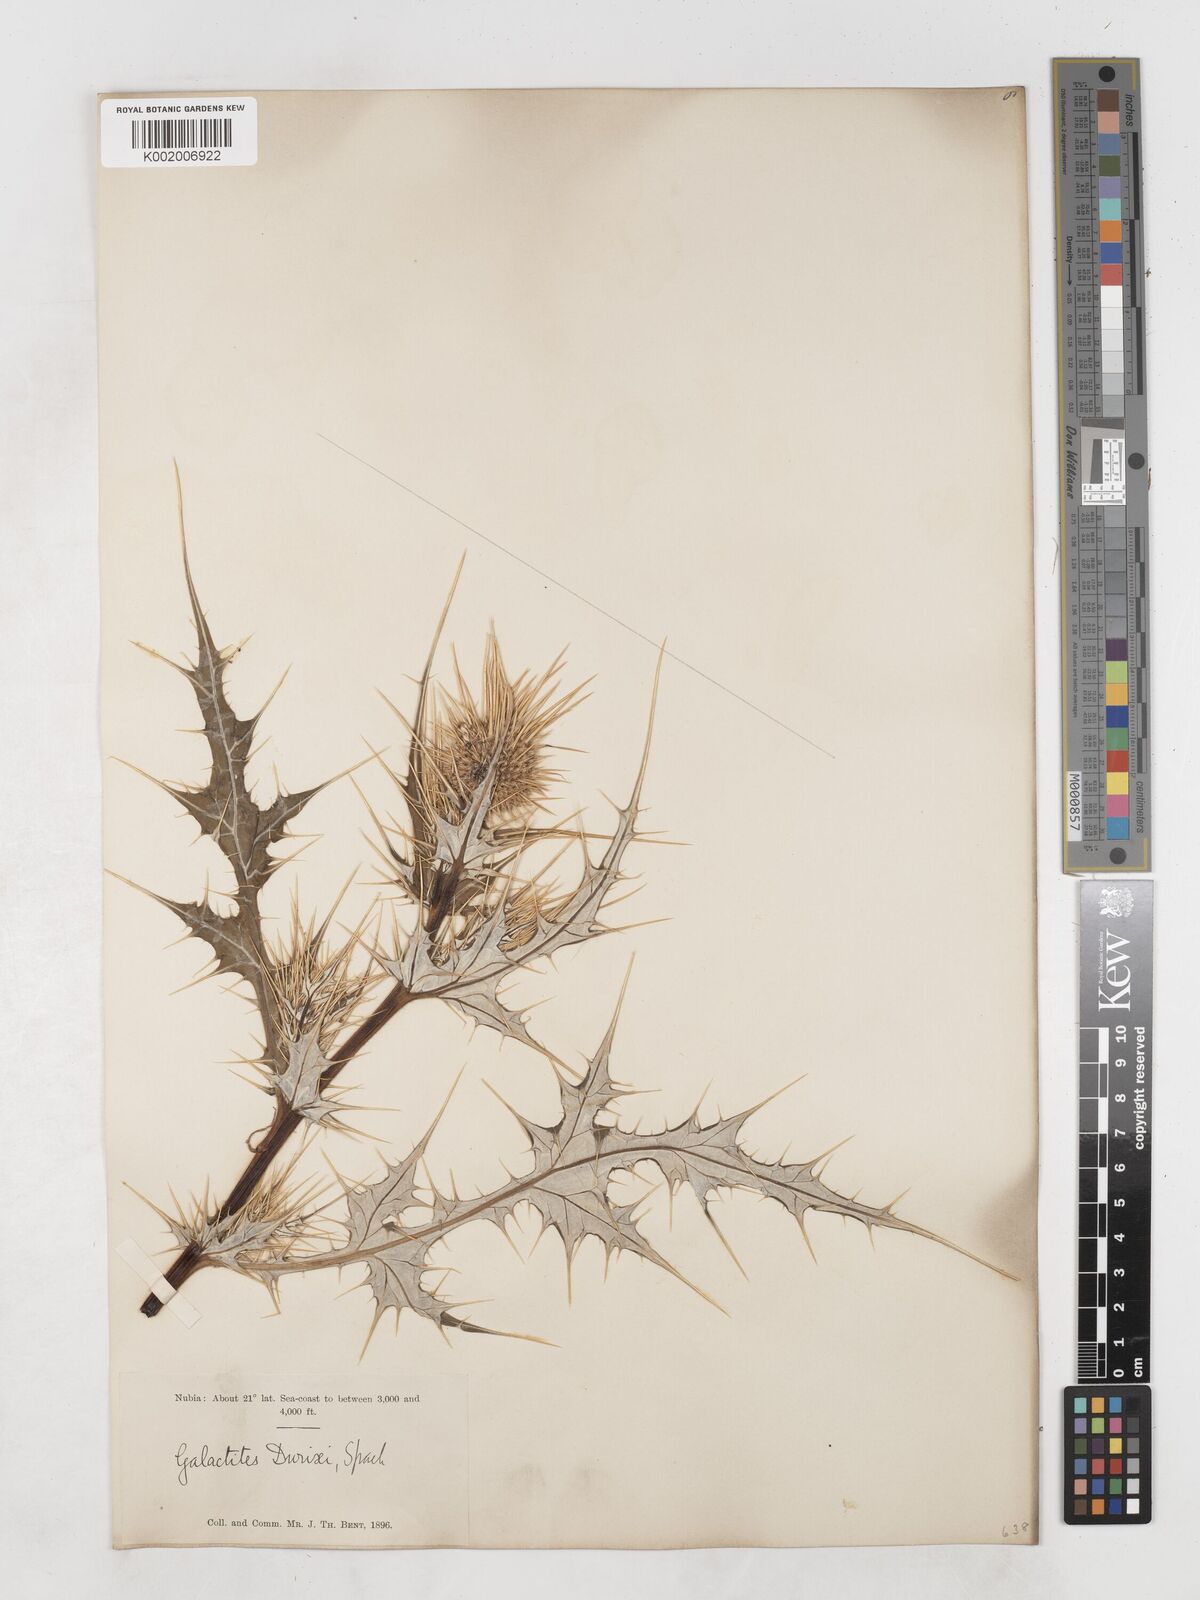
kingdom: Plantae
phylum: Tracheophyta
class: Magnoliopsida
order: Asterales
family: Asteraceae
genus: Galactites
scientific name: Galactites duriaei
